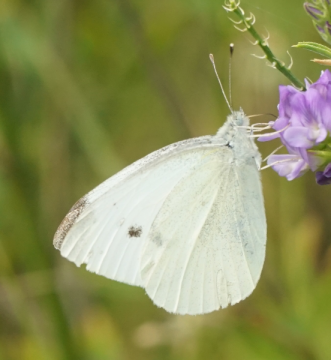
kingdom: Animalia
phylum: Arthropoda
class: Insecta
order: Lepidoptera
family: Pieridae
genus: Pieris
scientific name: Pieris rapae
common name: Cabbage White
